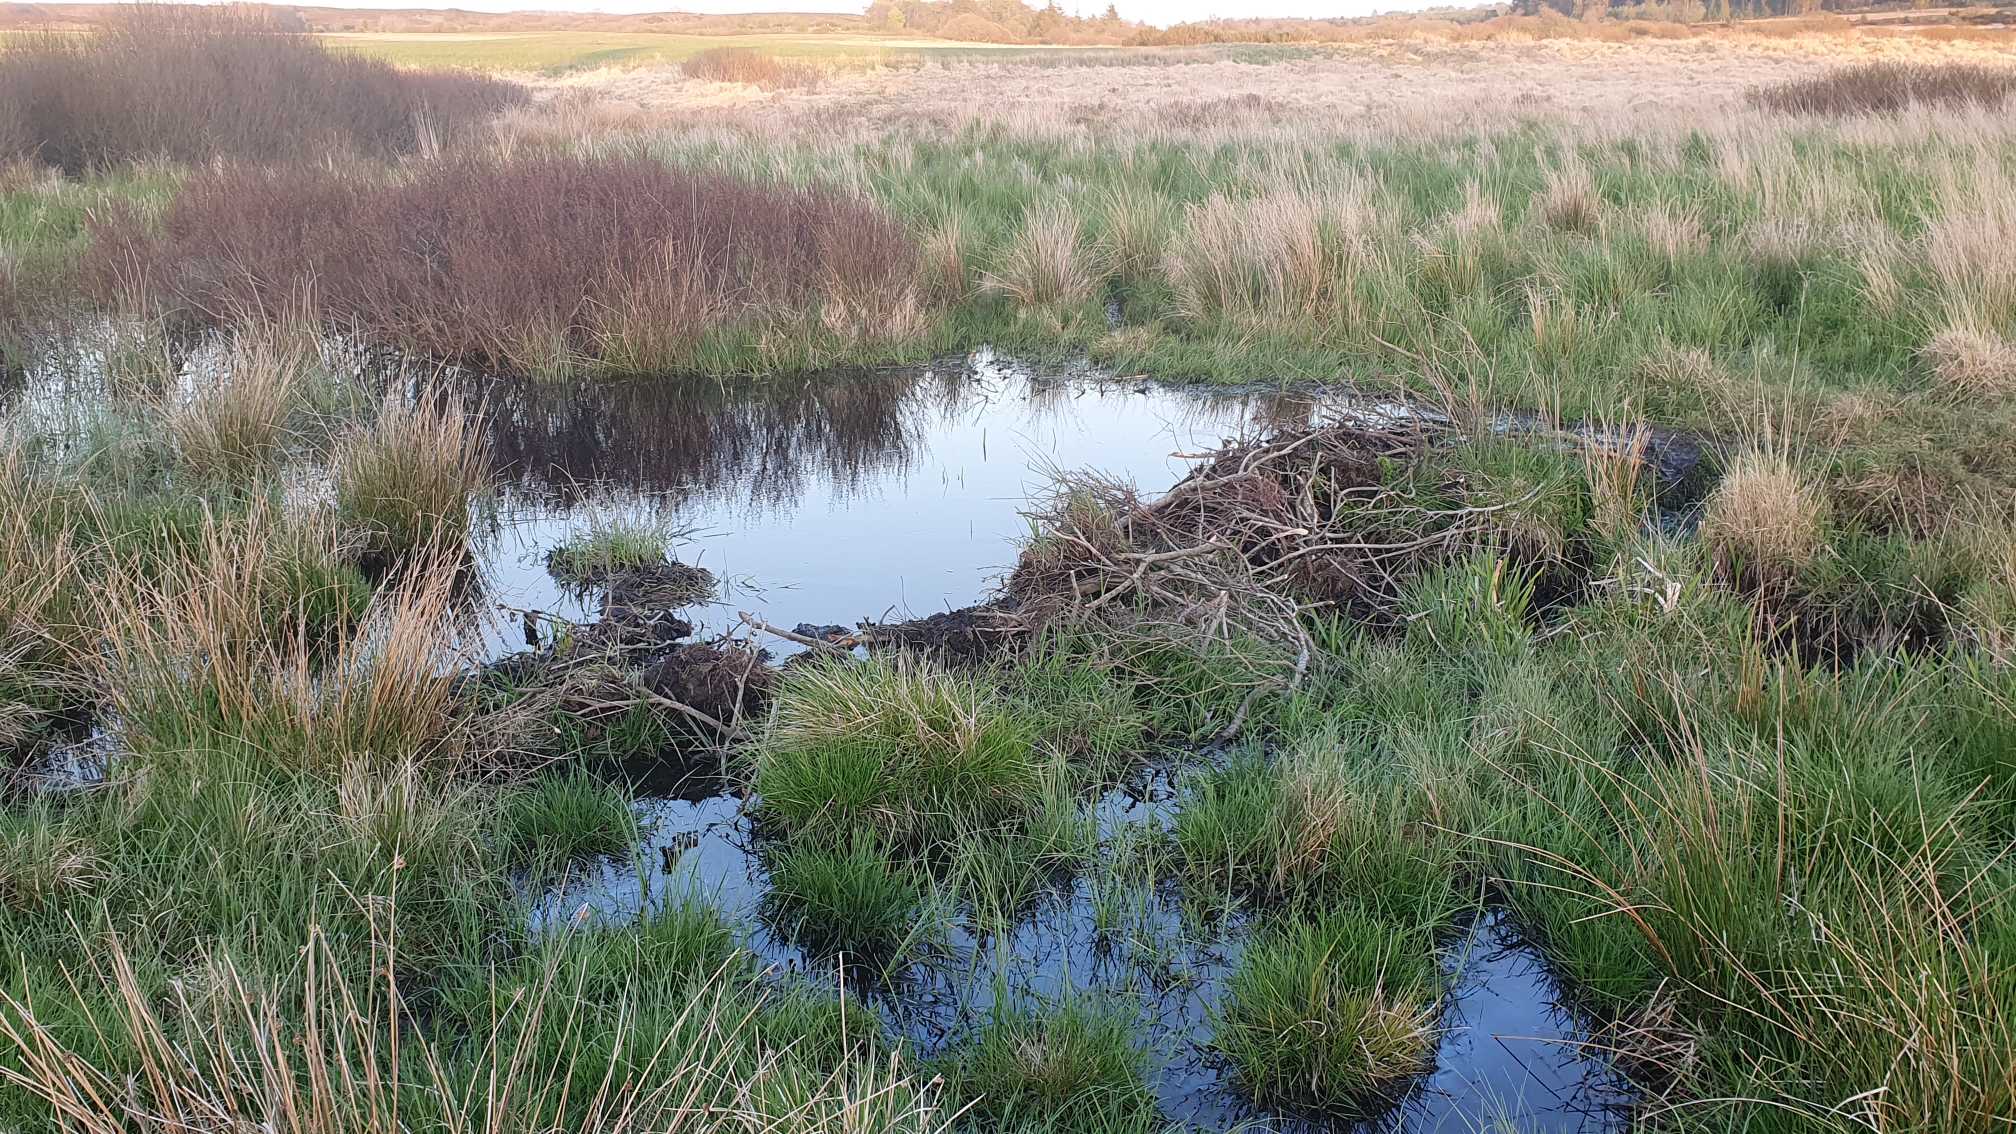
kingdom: Animalia
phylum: Chordata
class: Mammalia
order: Rodentia
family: Castoridae
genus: Castor
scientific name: Castor fiber
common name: Bæver
